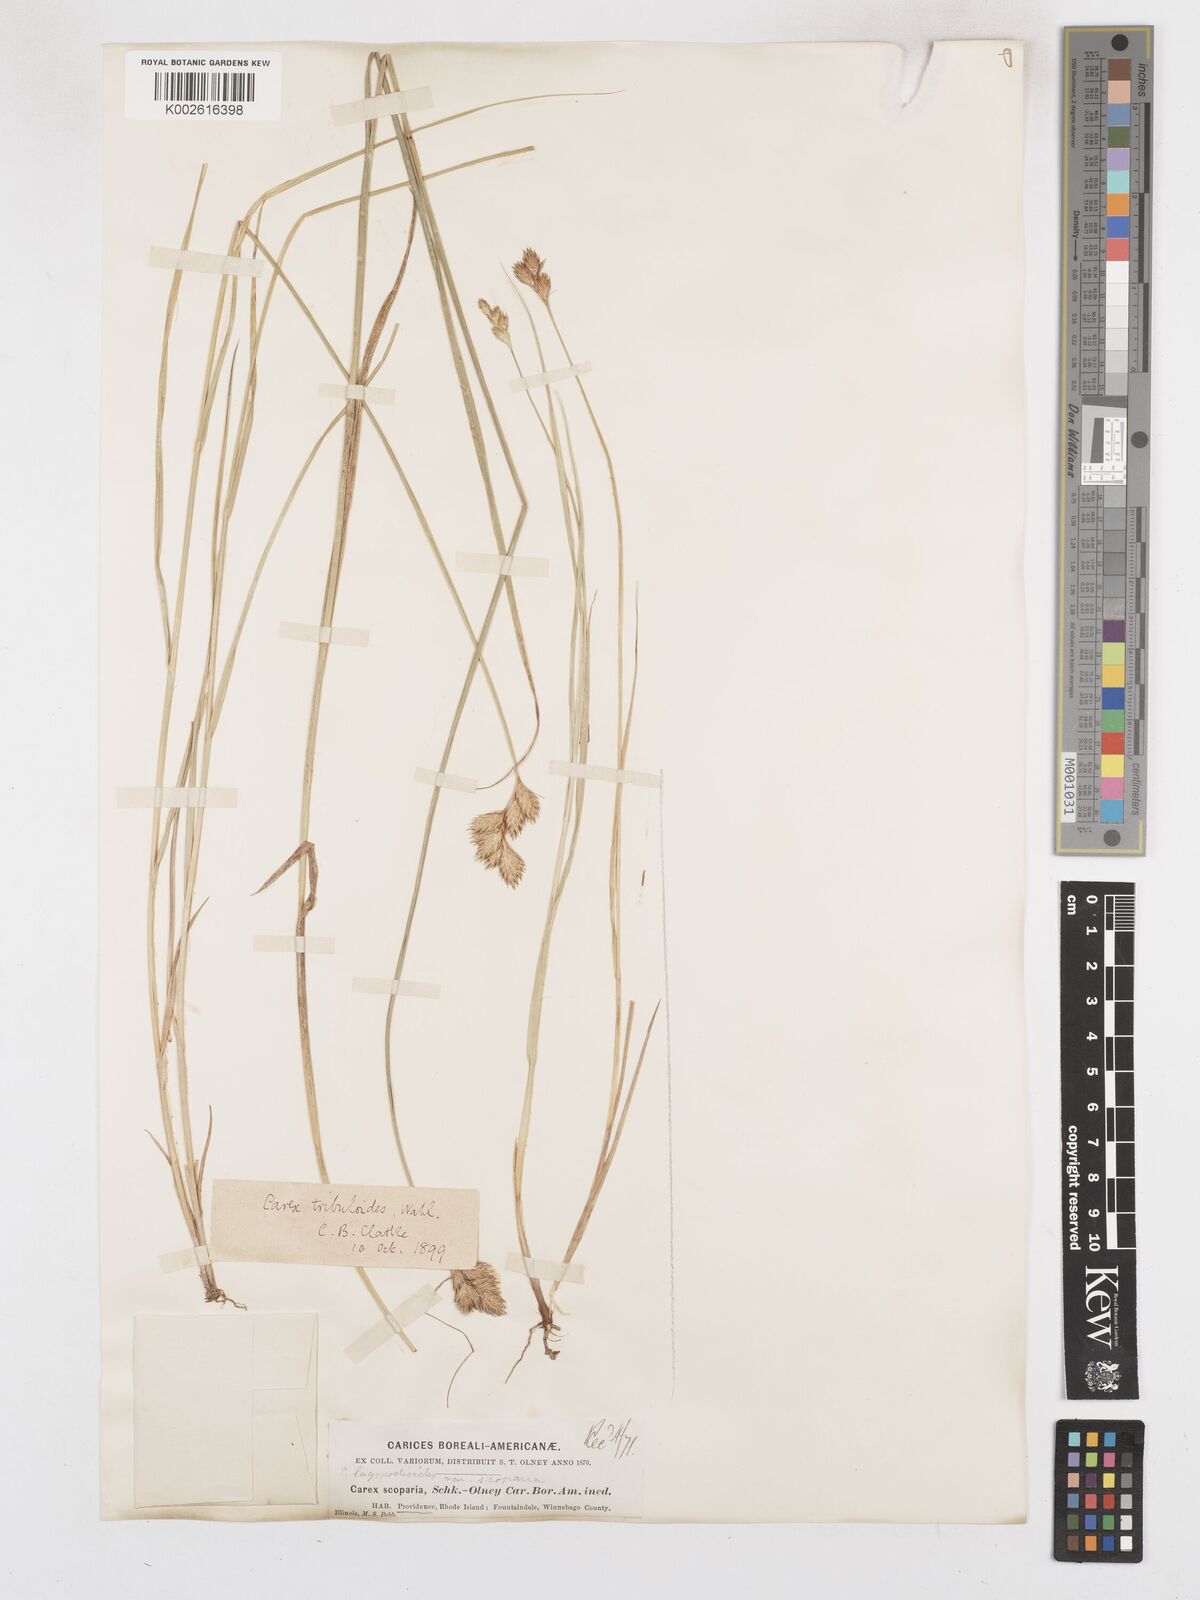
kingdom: Plantae
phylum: Tracheophyta
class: Liliopsida
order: Poales
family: Cyperaceae
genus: Carex
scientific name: Carex tribuloides
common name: Blunt broom sedge
